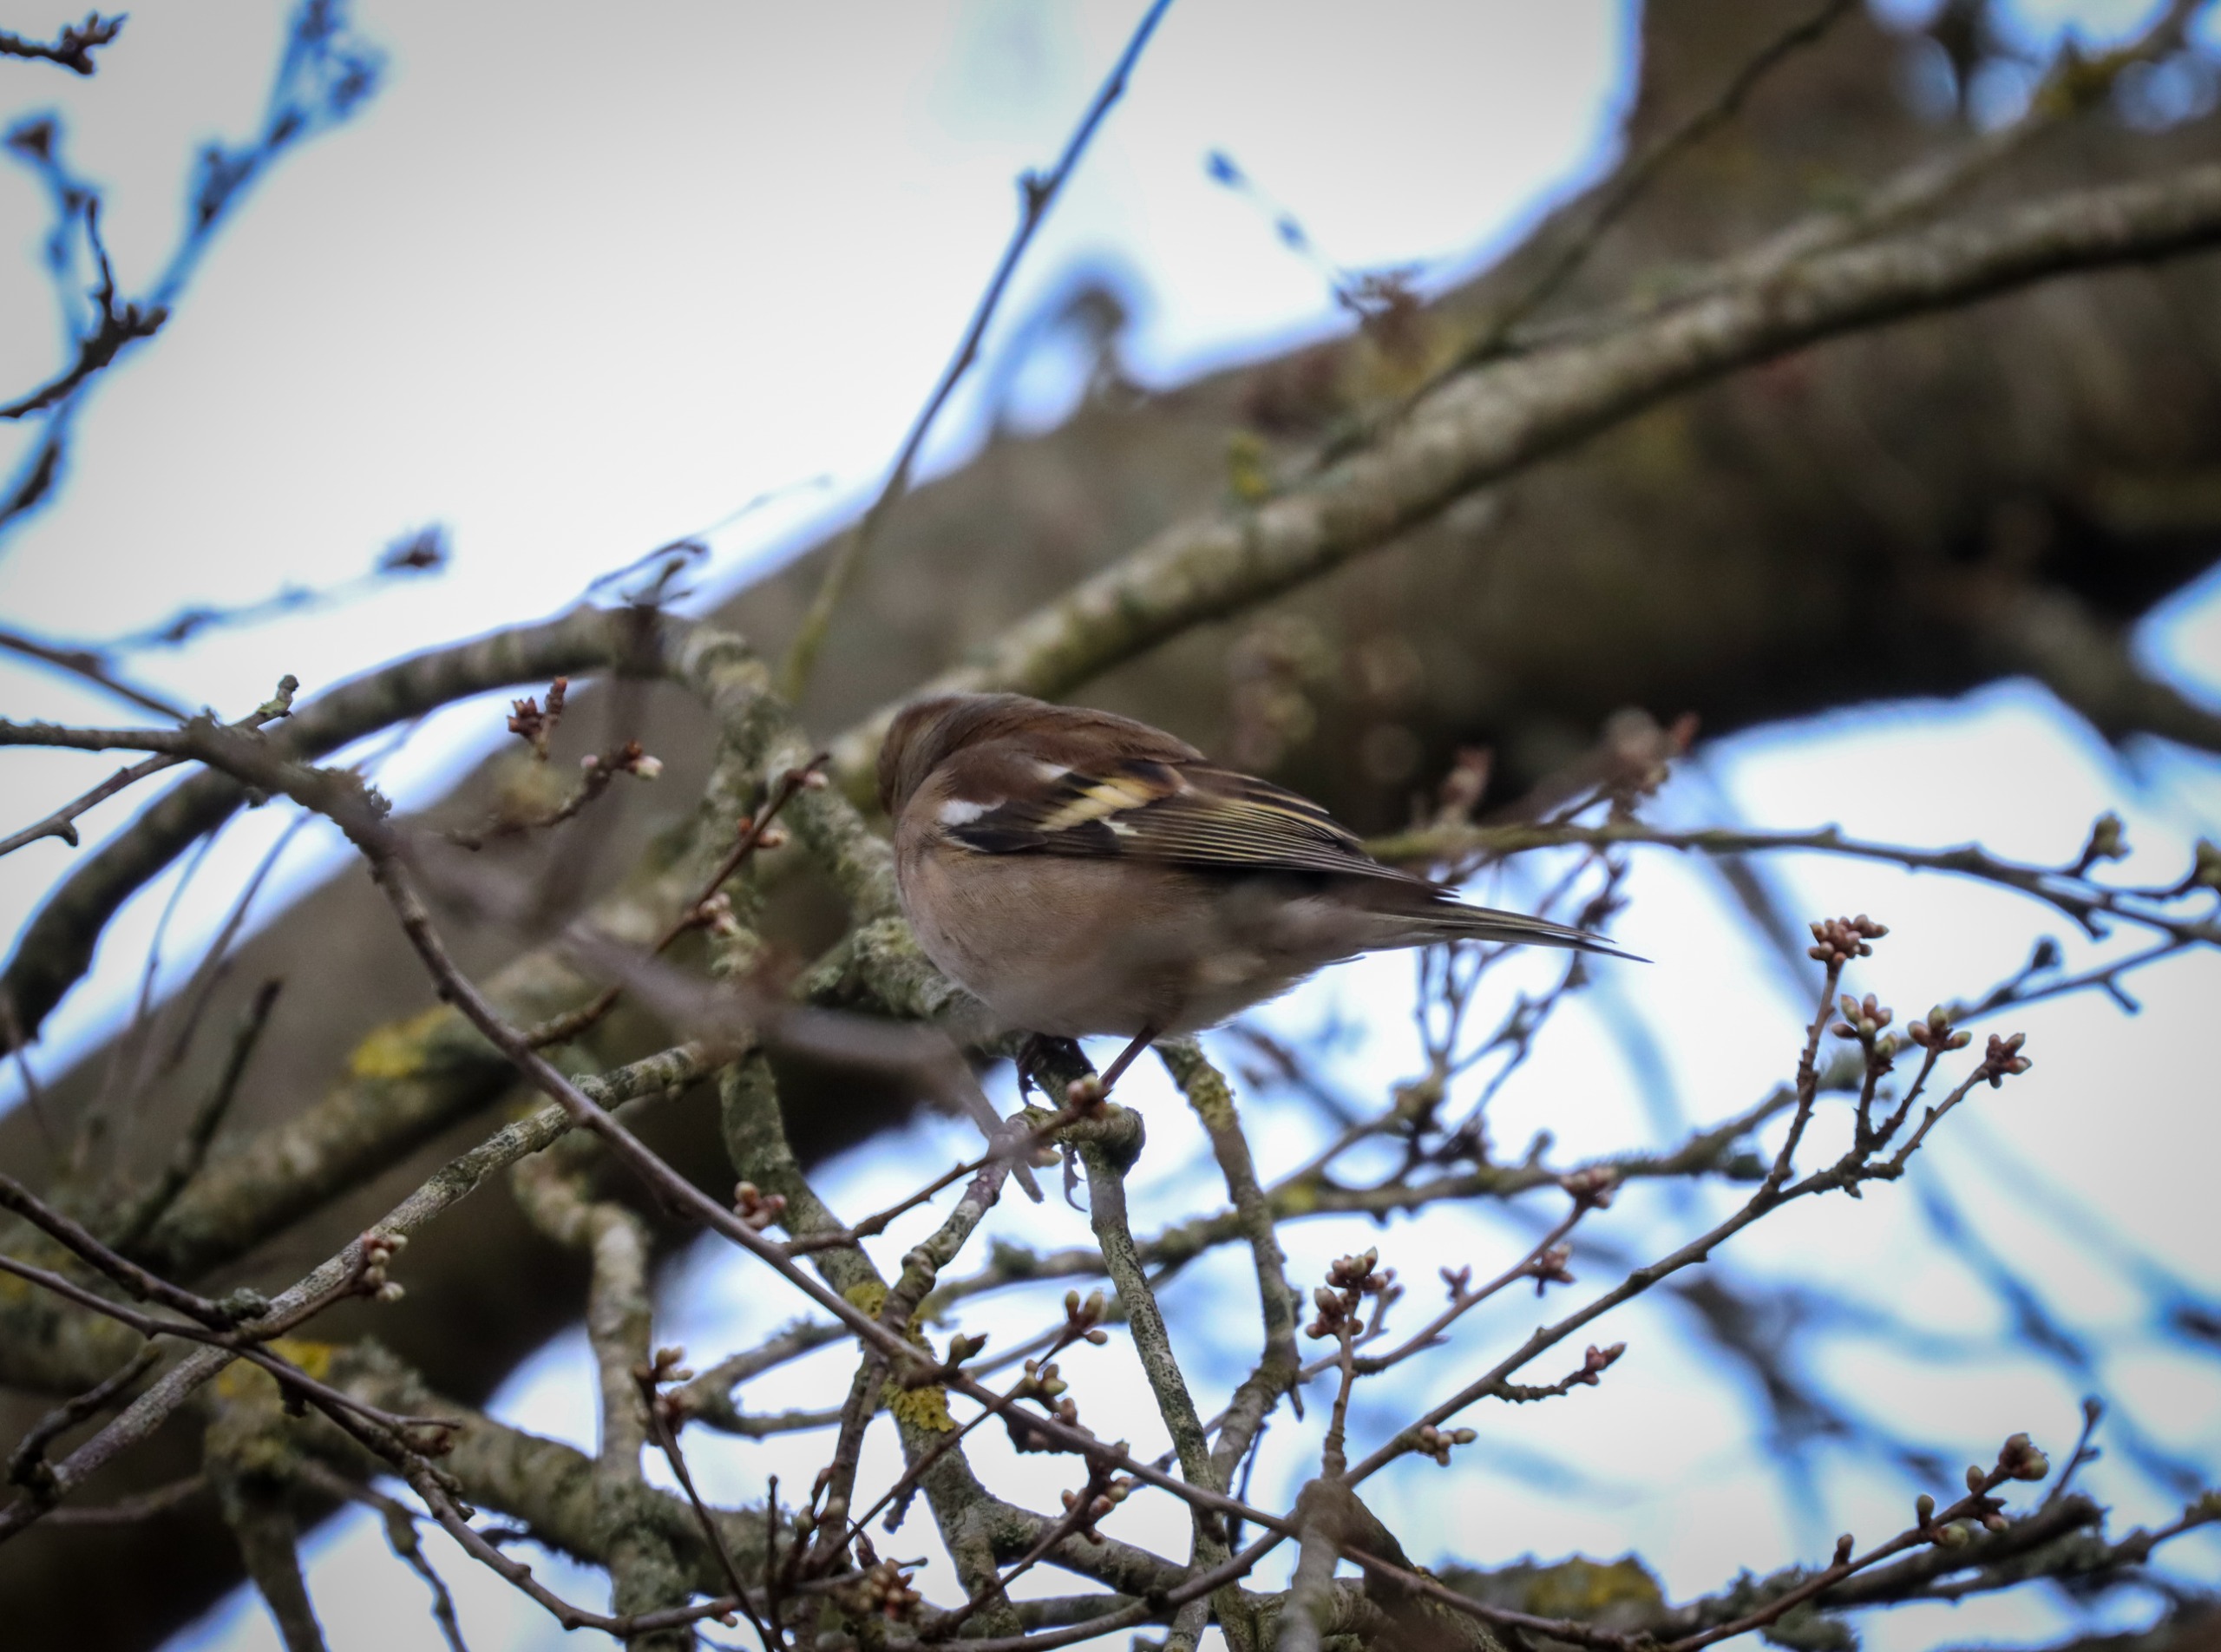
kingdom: Animalia
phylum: Chordata
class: Aves
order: Passeriformes
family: Fringillidae
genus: Fringilla
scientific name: Fringilla coelebs
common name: Bogfinke
